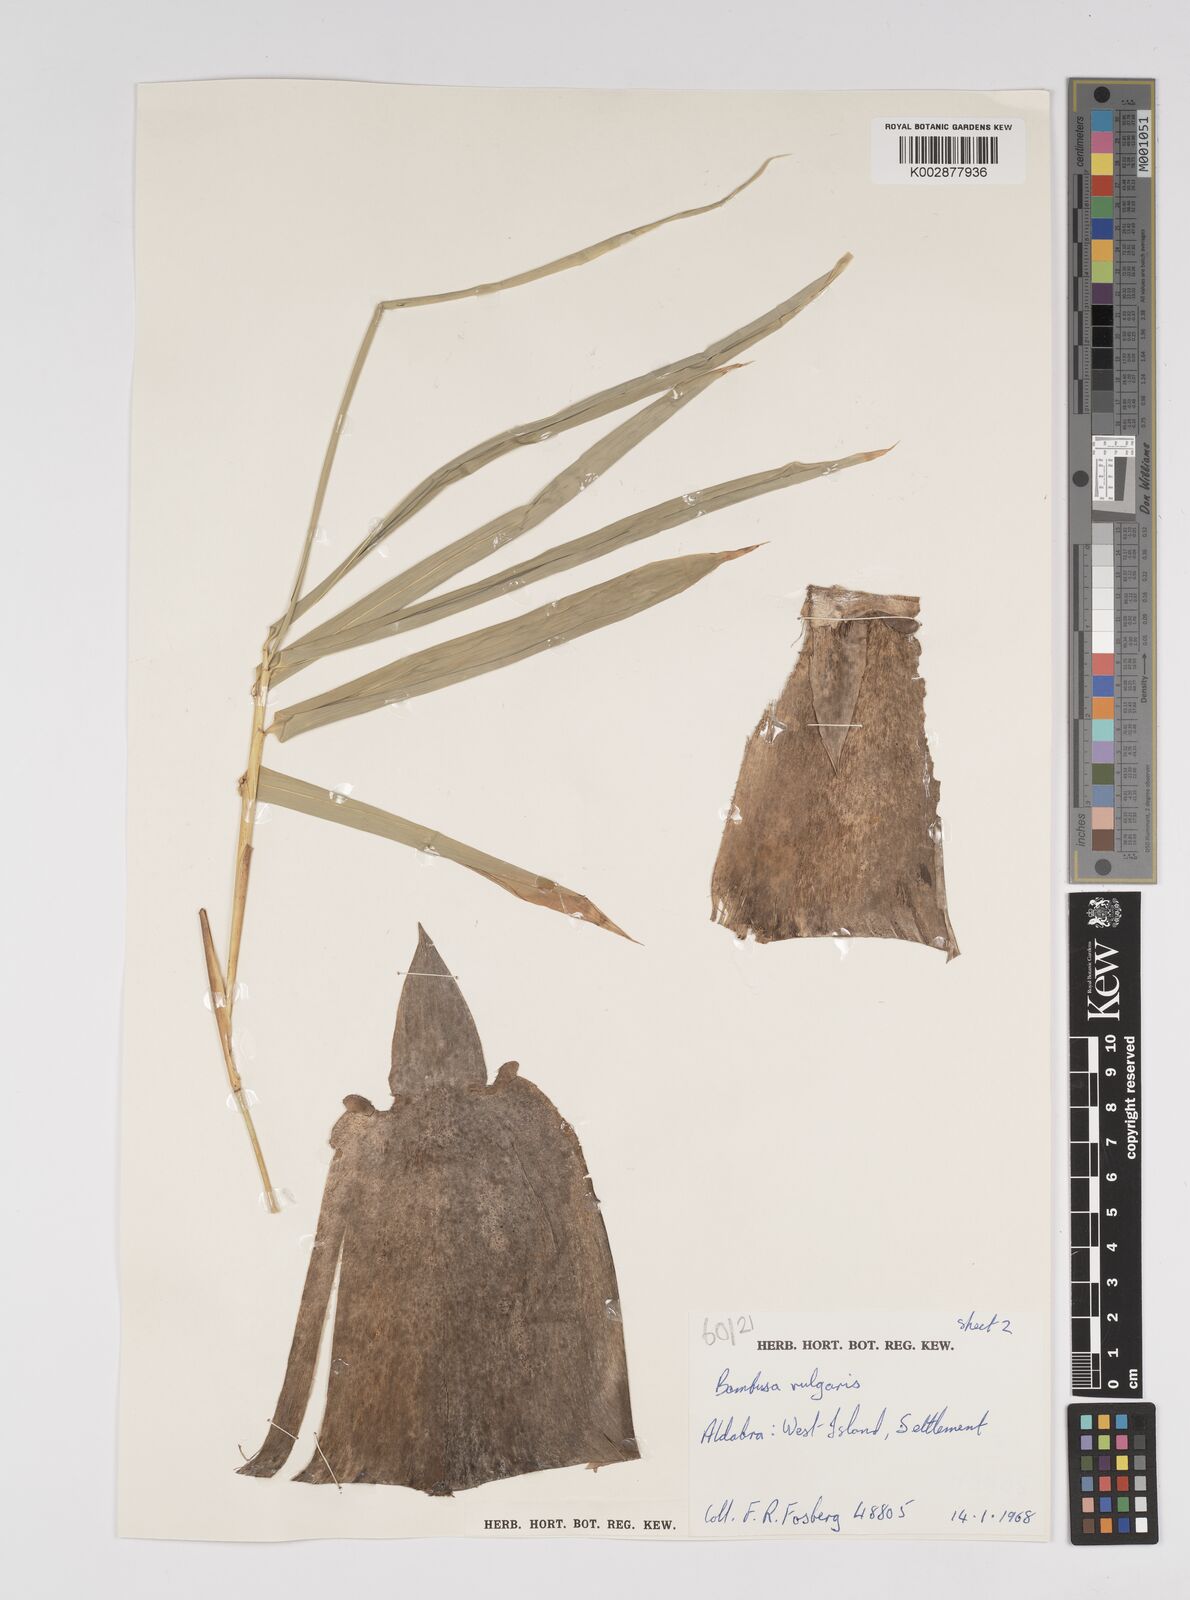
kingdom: Plantae
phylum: Tracheophyta
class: Liliopsida
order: Poales
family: Poaceae
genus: Bambusa
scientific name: Bambusa vulgaris
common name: Common bamboo
